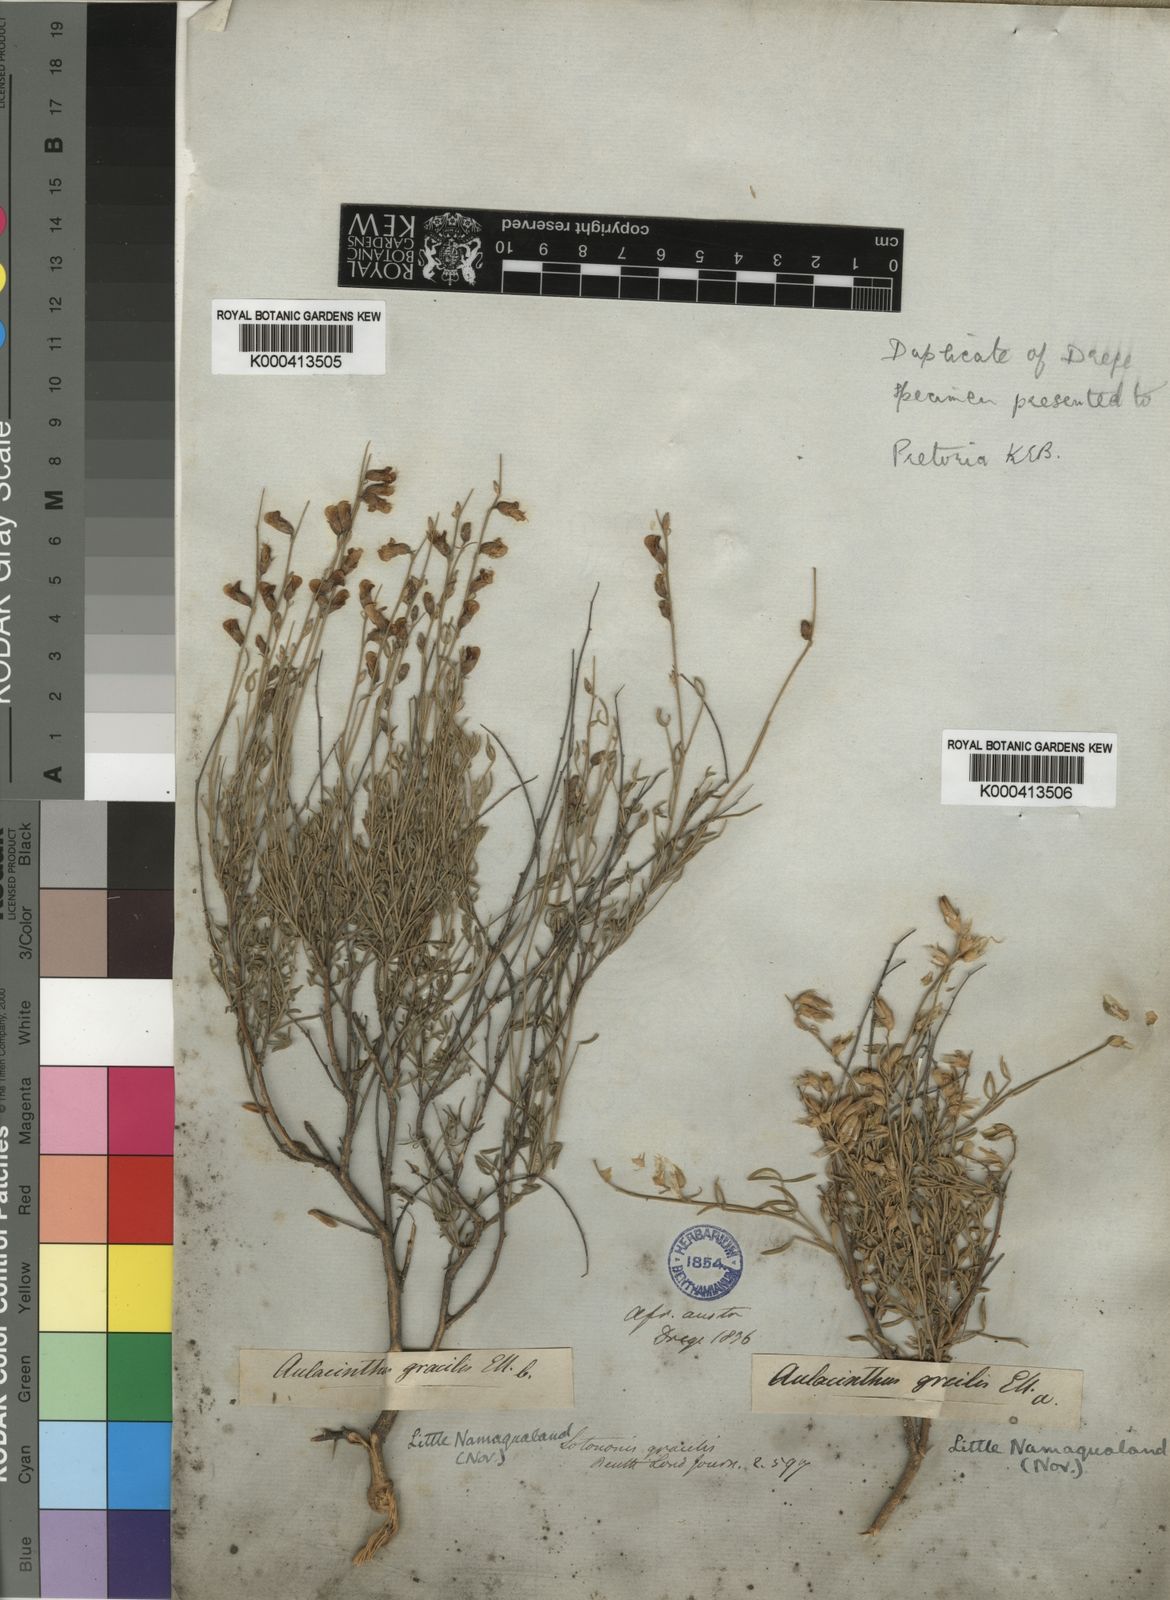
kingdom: Plantae
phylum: Tracheophyta
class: Magnoliopsida
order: Fabales
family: Fabaceae
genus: Lotononis
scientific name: Lotononis densa
